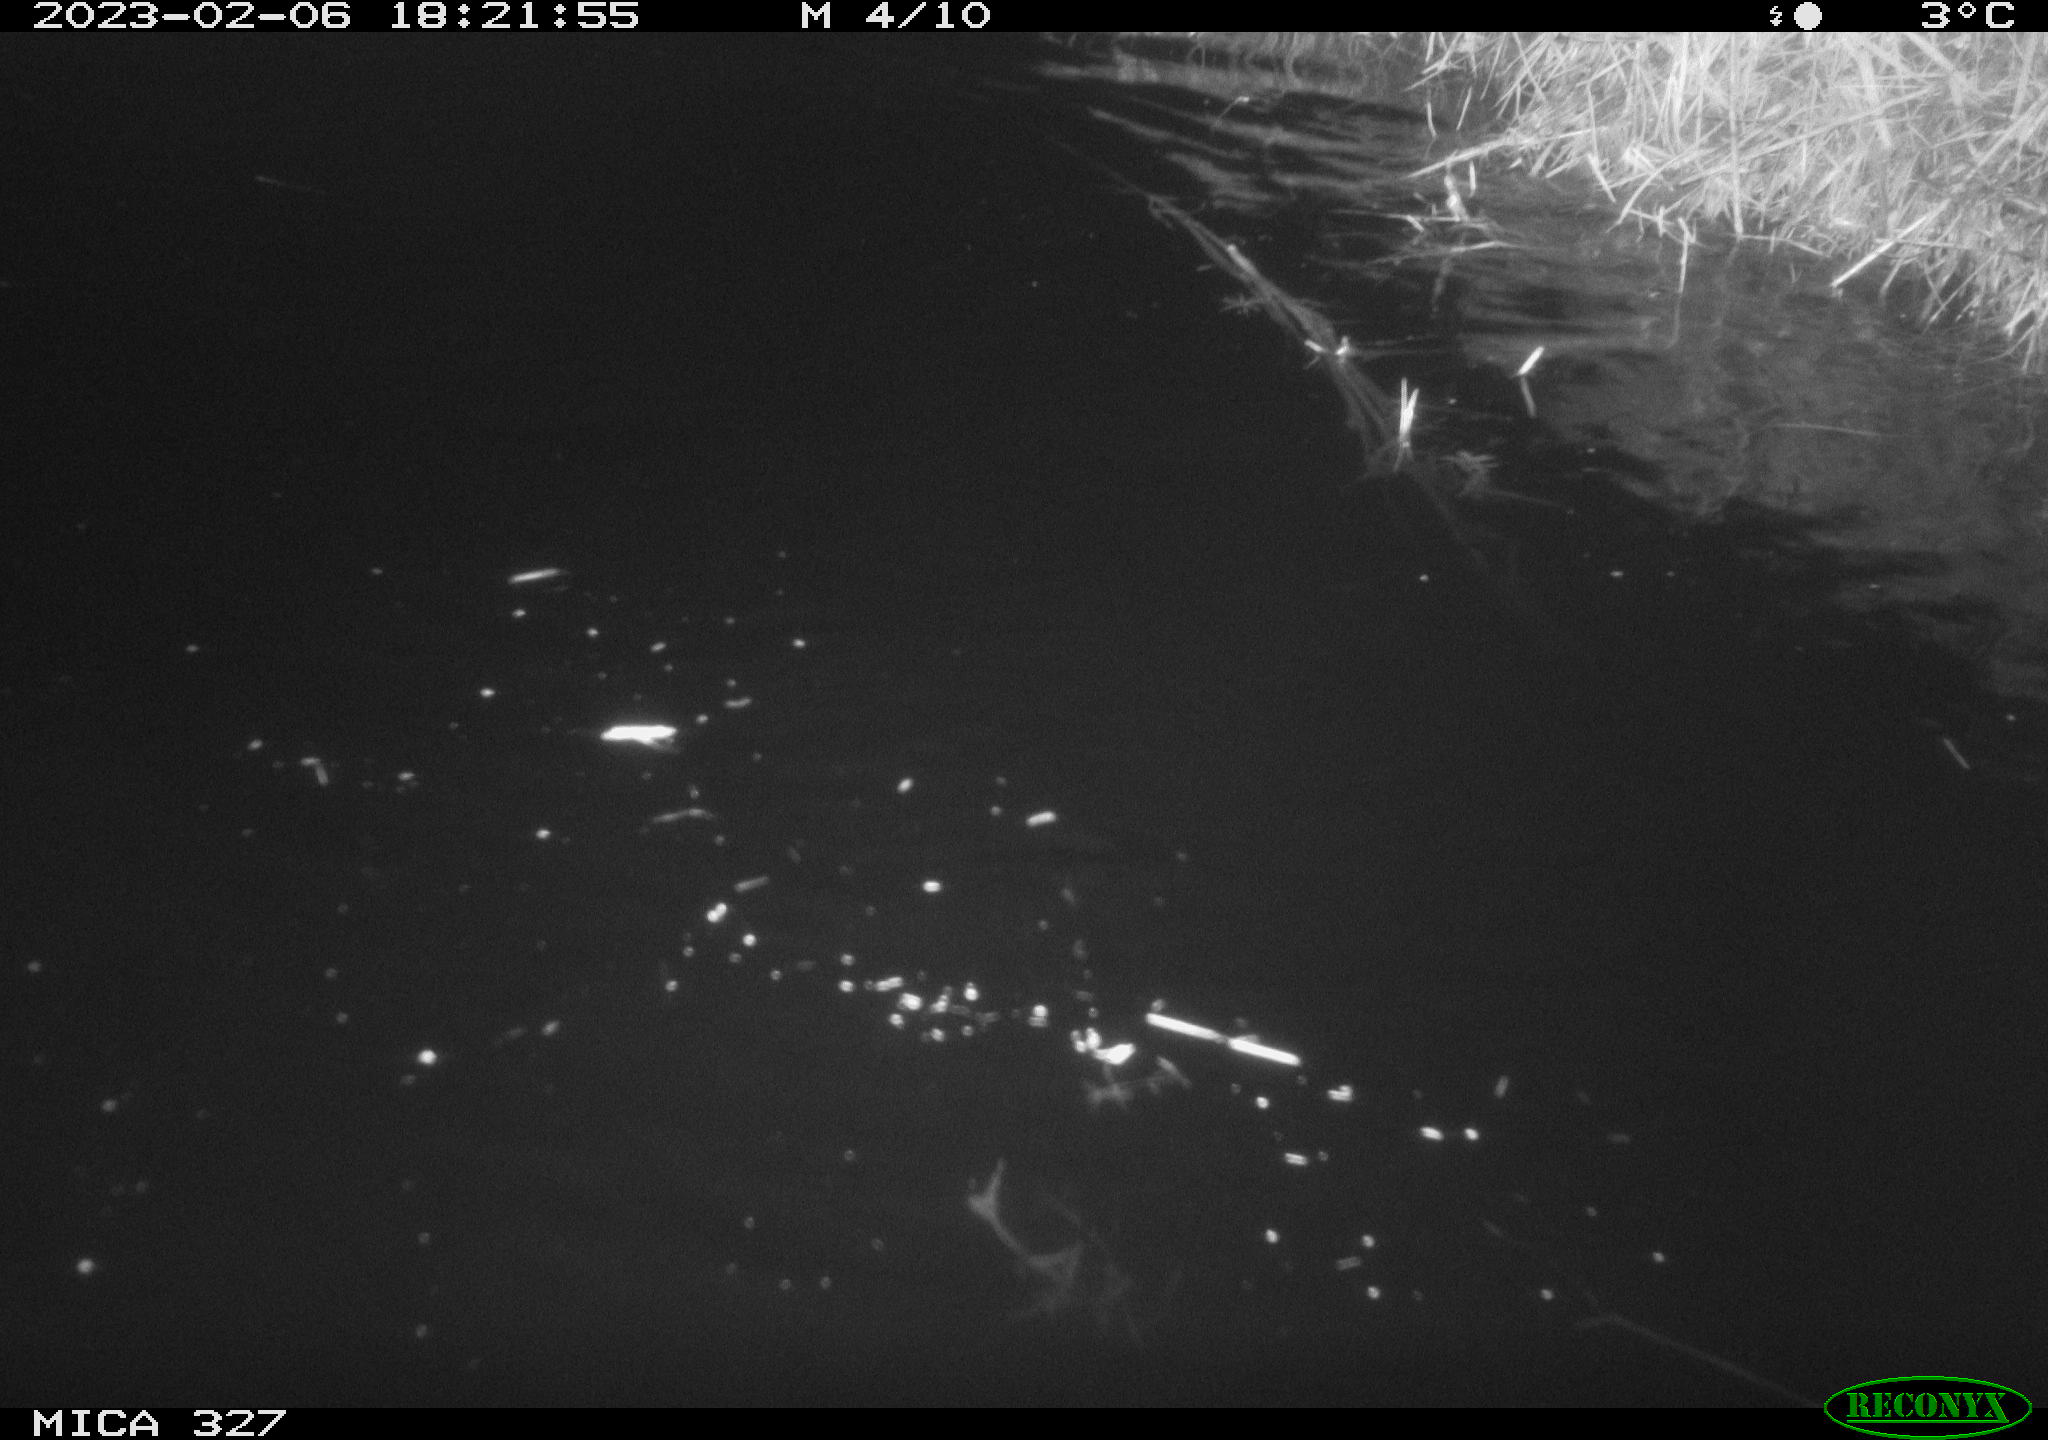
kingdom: Animalia
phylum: Chordata
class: Mammalia
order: Rodentia
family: Cricetidae
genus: Ondatra
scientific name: Ondatra zibethicus
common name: Muskrat
